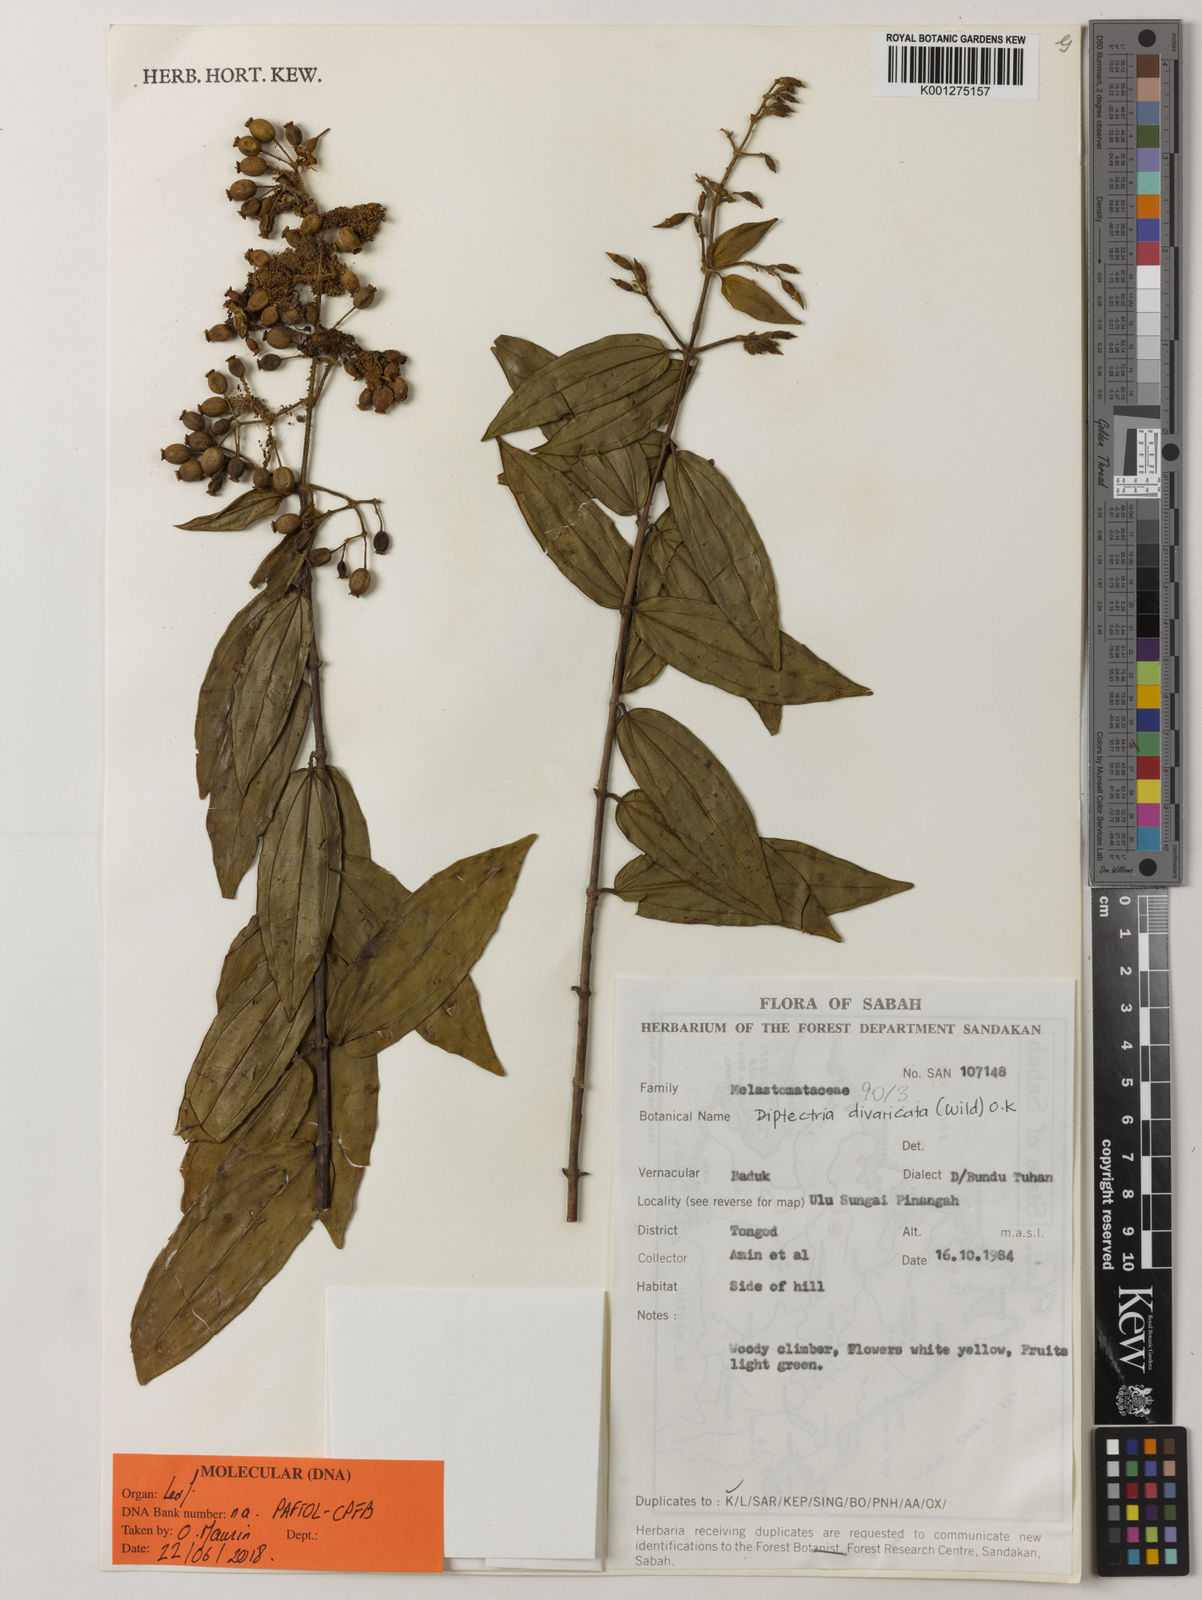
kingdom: Plantae
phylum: Tracheophyta
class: Magnoliopsida
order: Myrtales
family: Melastomataceae
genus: Diplectria
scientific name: Diplectria divaricata
